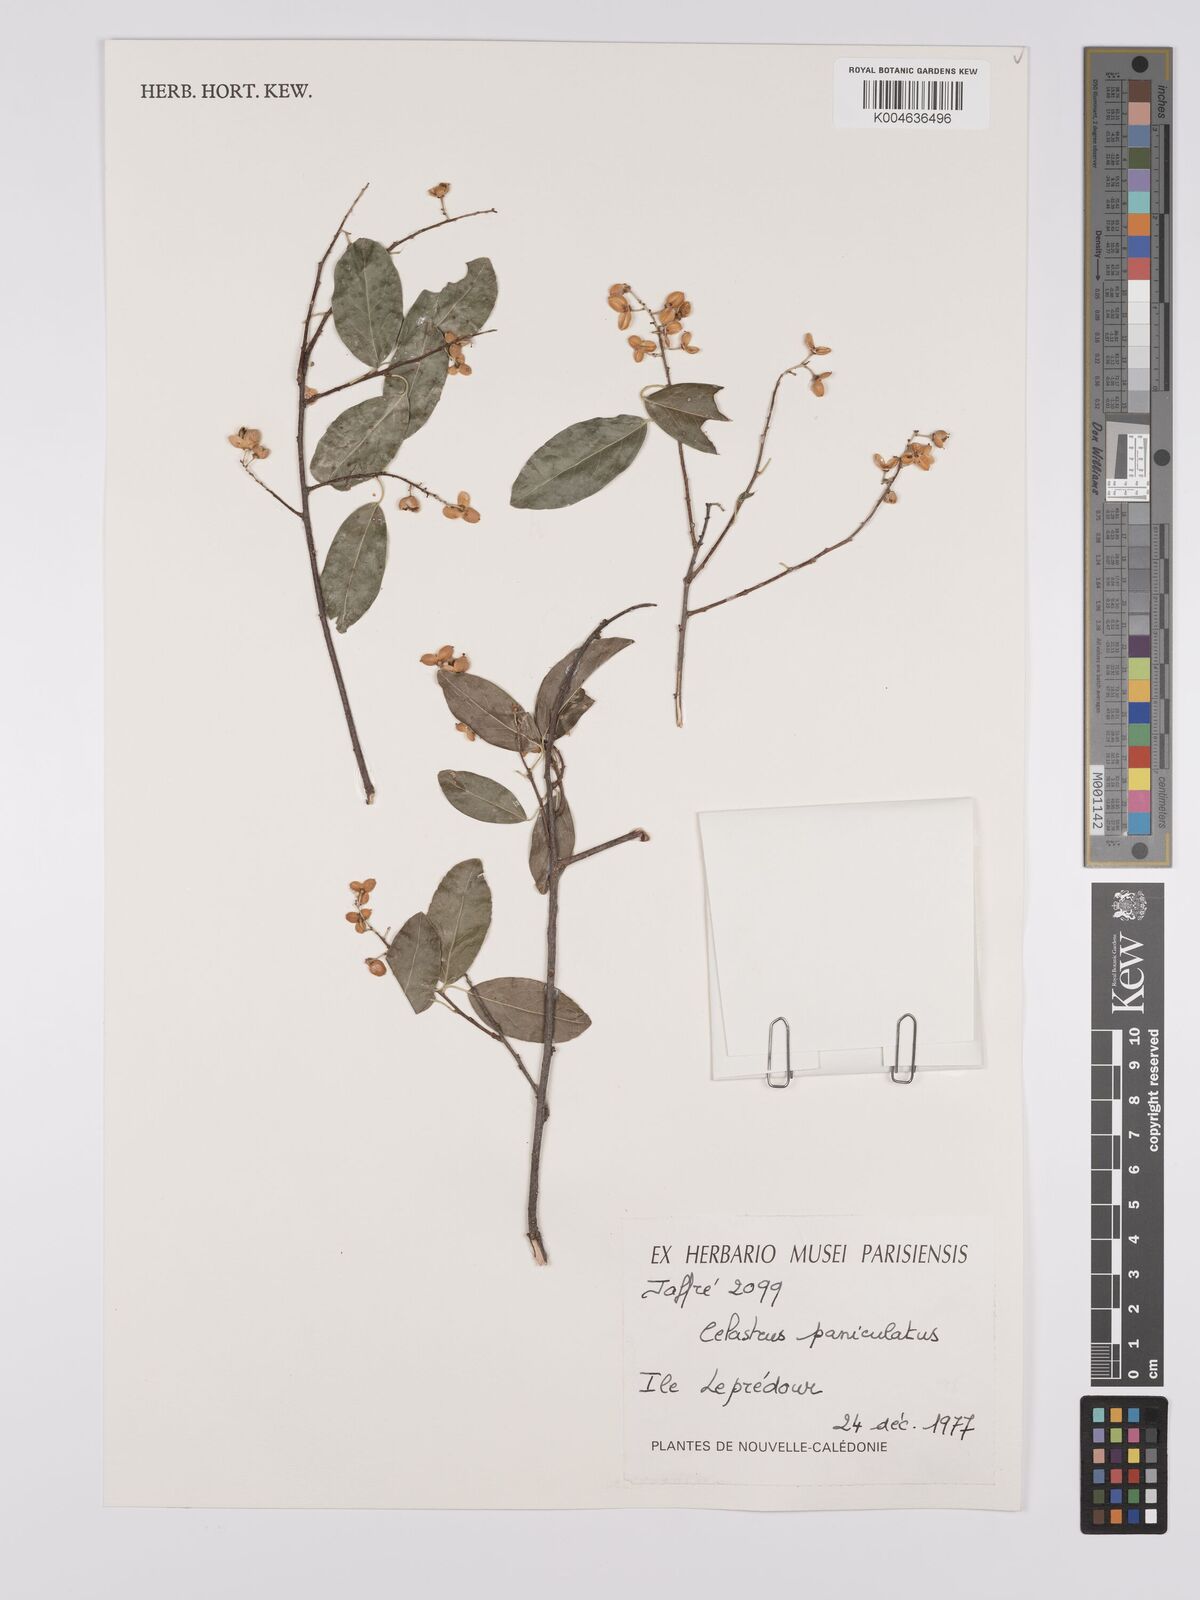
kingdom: Plantae
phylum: Tracheophyta
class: Magnoliopsida
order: Celastrales
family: Celastraceae
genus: Celastrus
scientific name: Celastrus paniculatus
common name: Oriental bittersweet; staff vine
